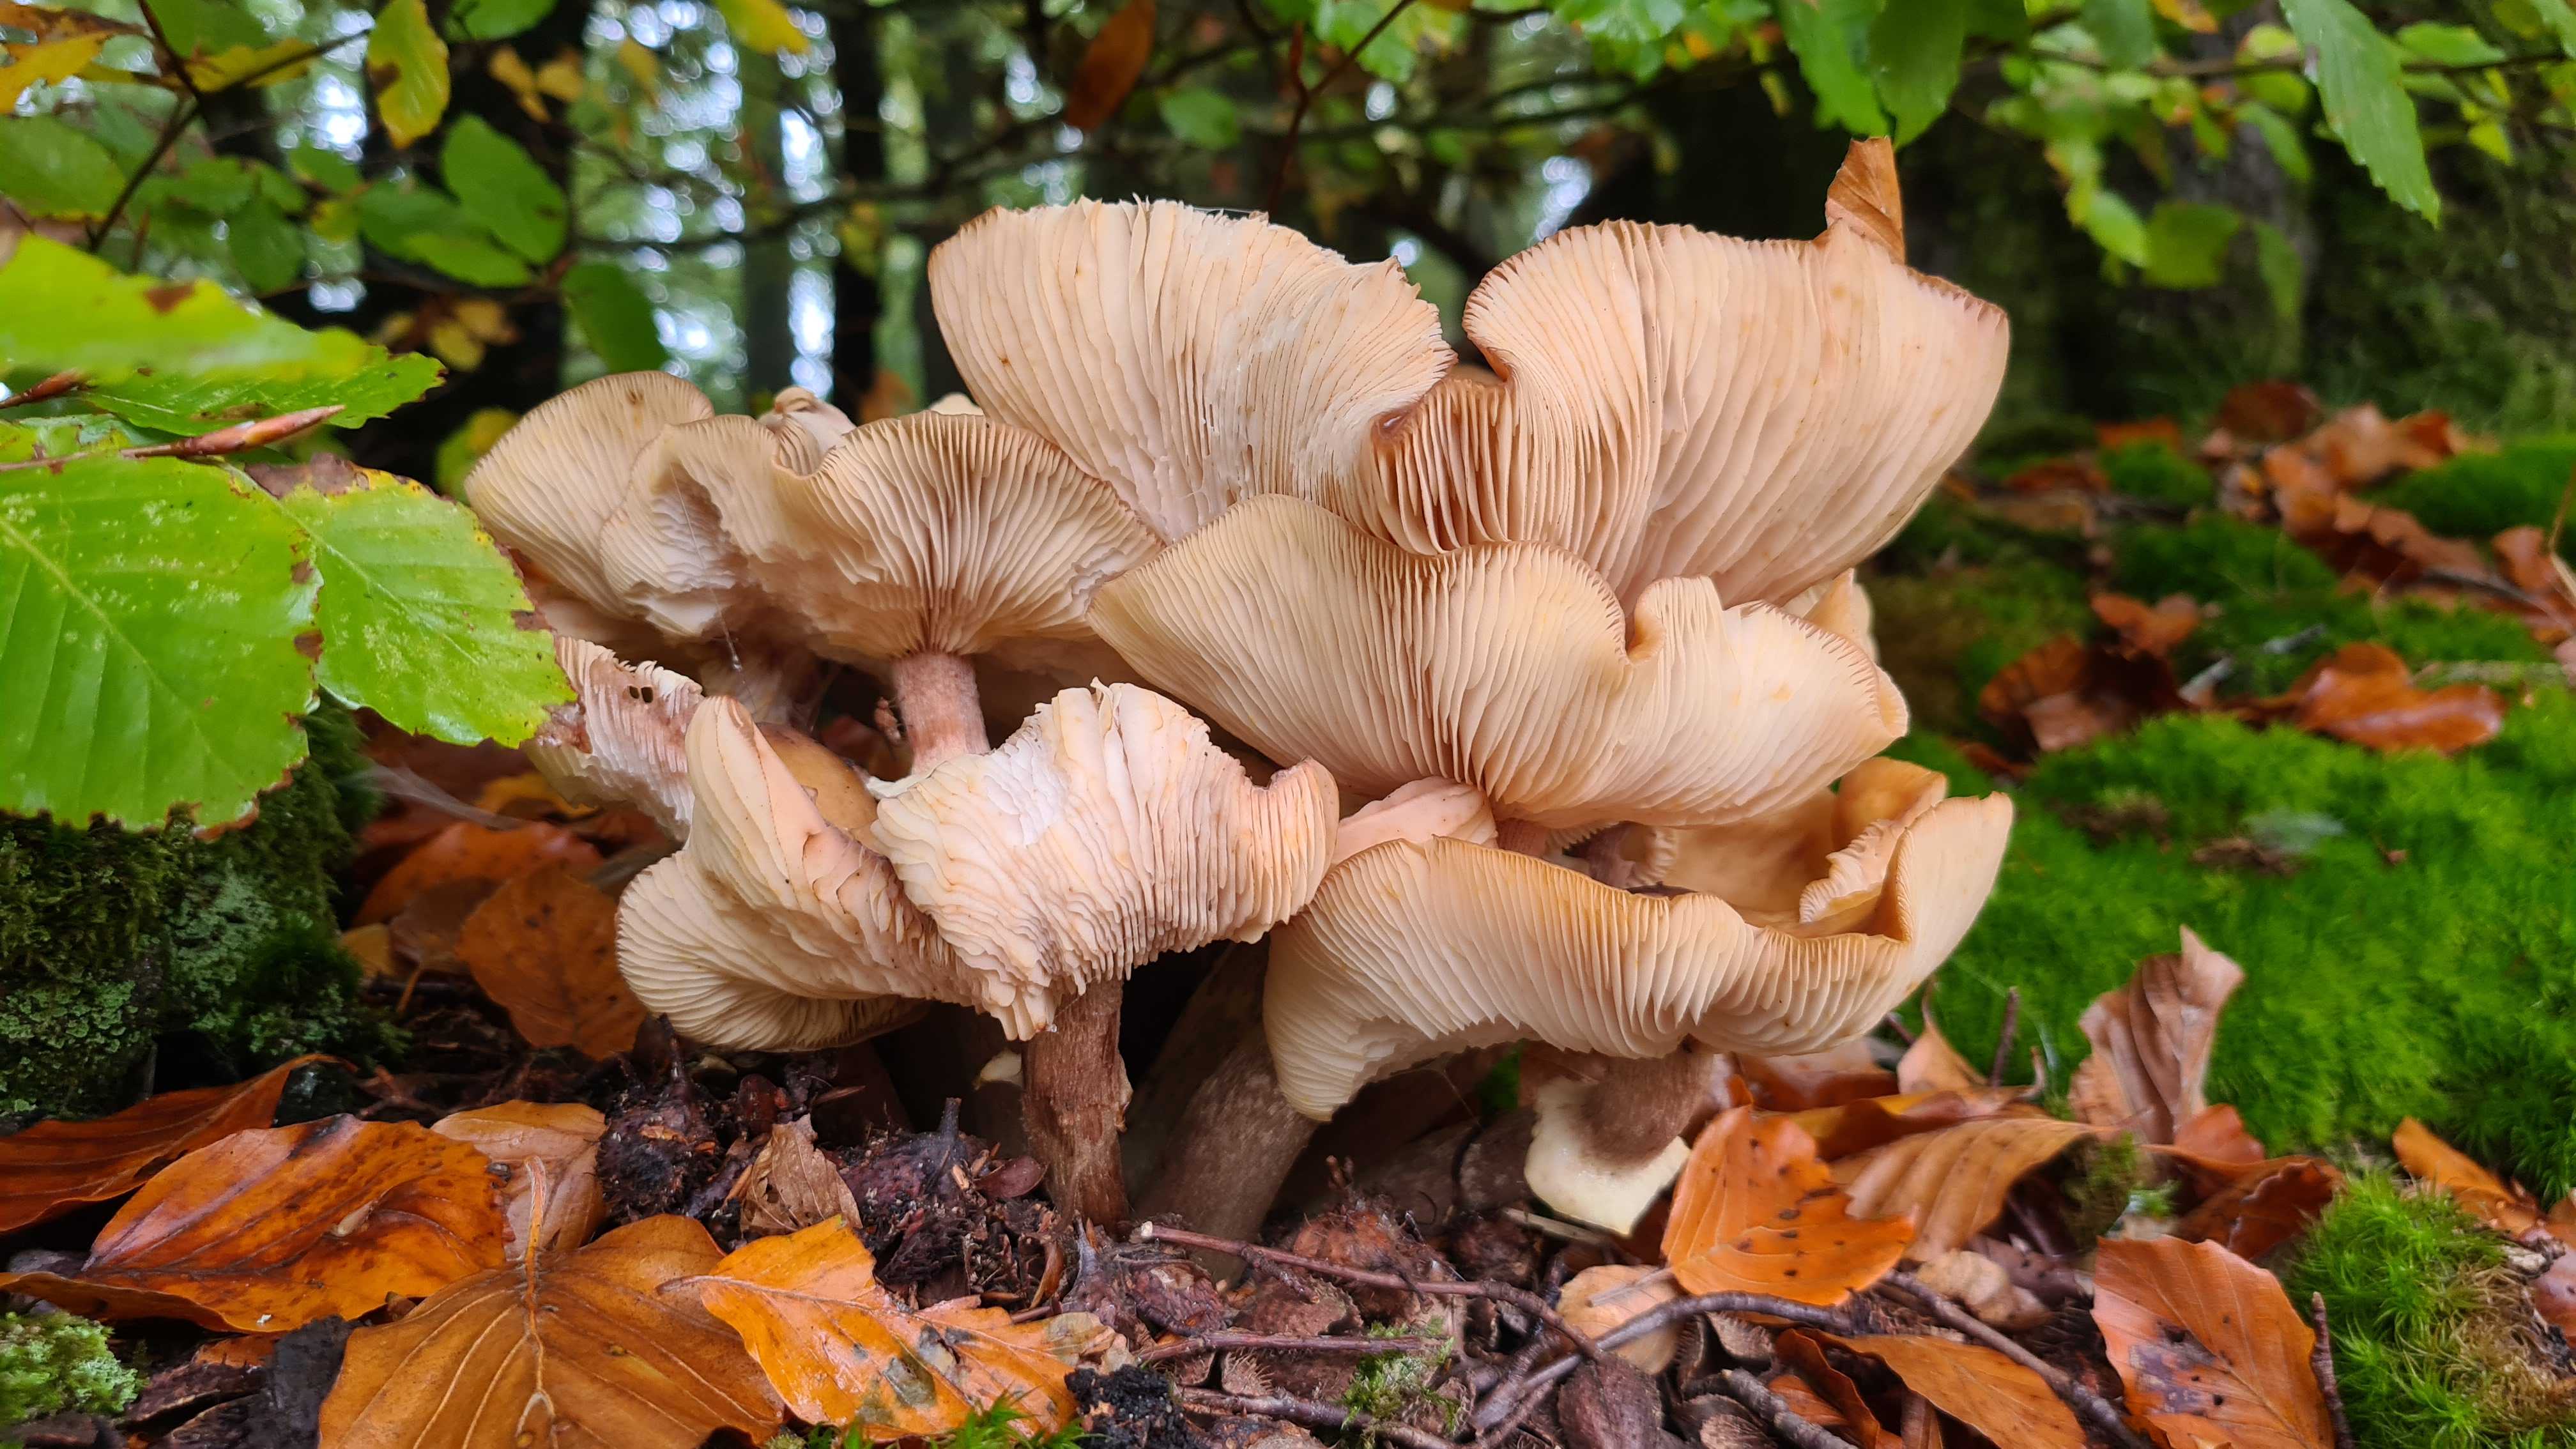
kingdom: Fungi
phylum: Basidiomycota
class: Agaricomycetes
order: Agaricales
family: Physalacriaceae
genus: Armillaria
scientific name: Armillaria mellea
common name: ægte honningsvamp
